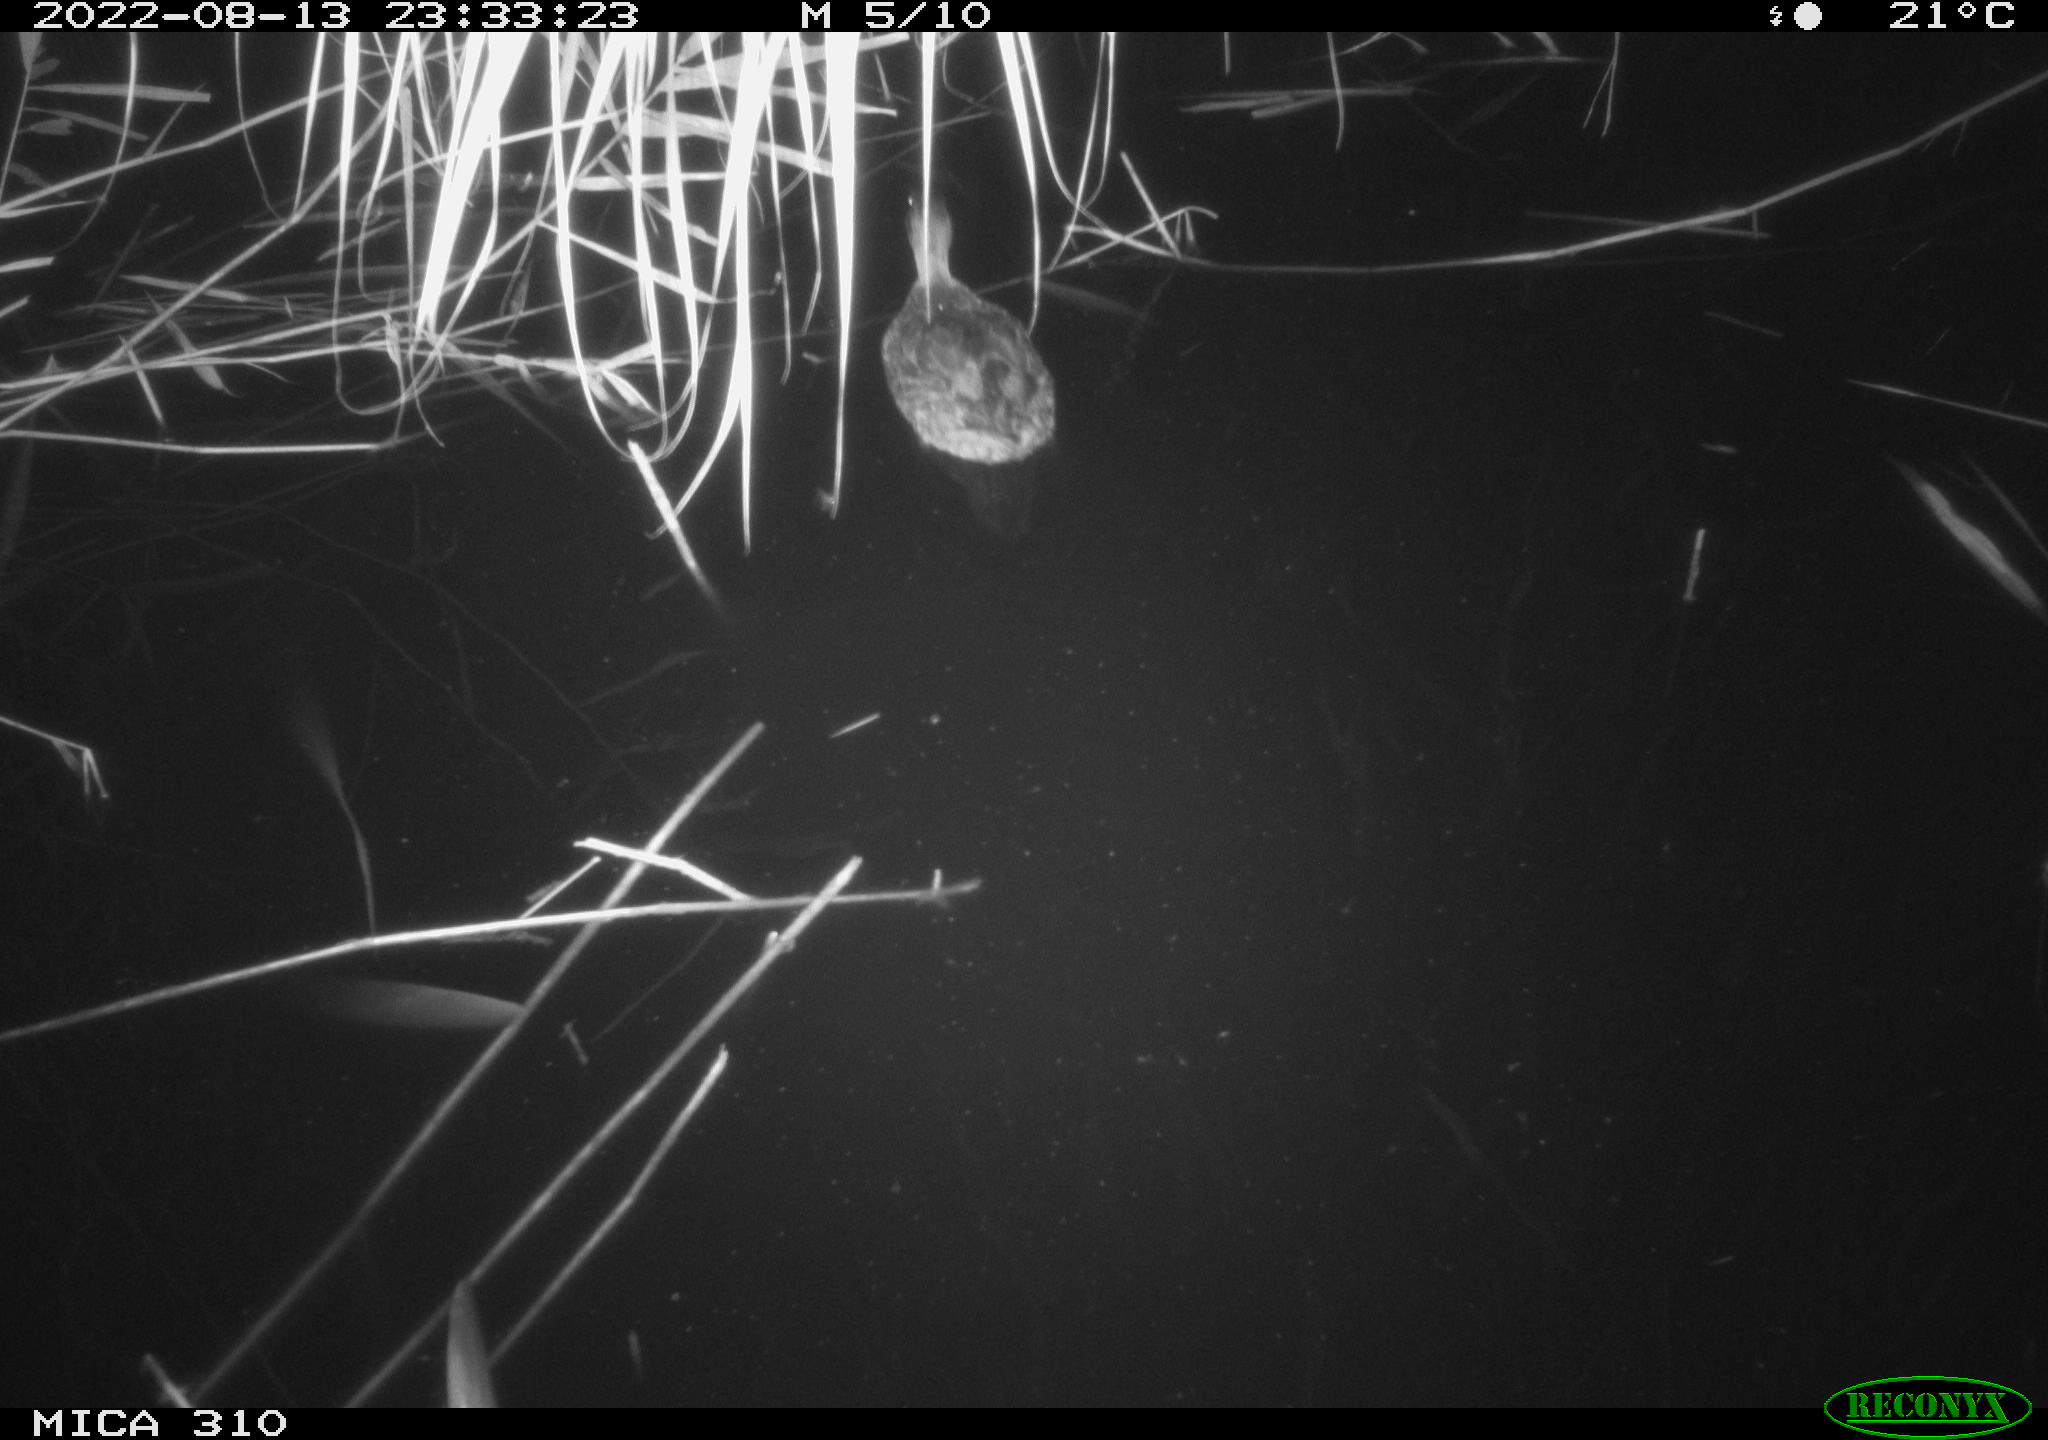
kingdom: Animalia
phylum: Chordata
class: Aves
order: Pelecaniformes
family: Ardeidae
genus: Ardea
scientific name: Ardea
